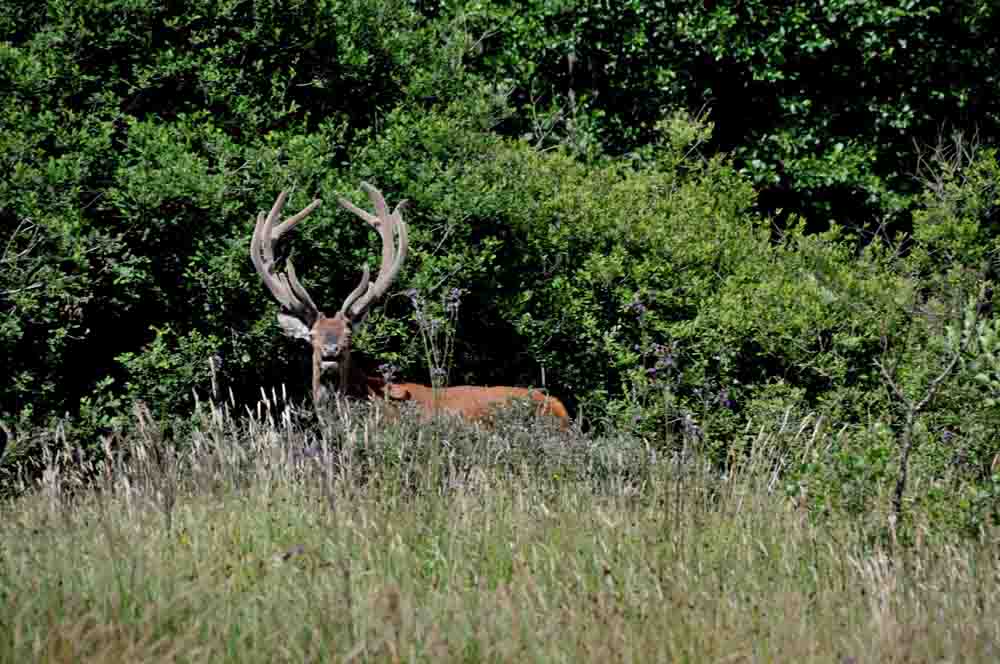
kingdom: Animalia
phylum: Chordata
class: Mammalia
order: Artiodactyla
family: Cervidae
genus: Cervus
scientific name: Cervus elaphus
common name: Red deer
